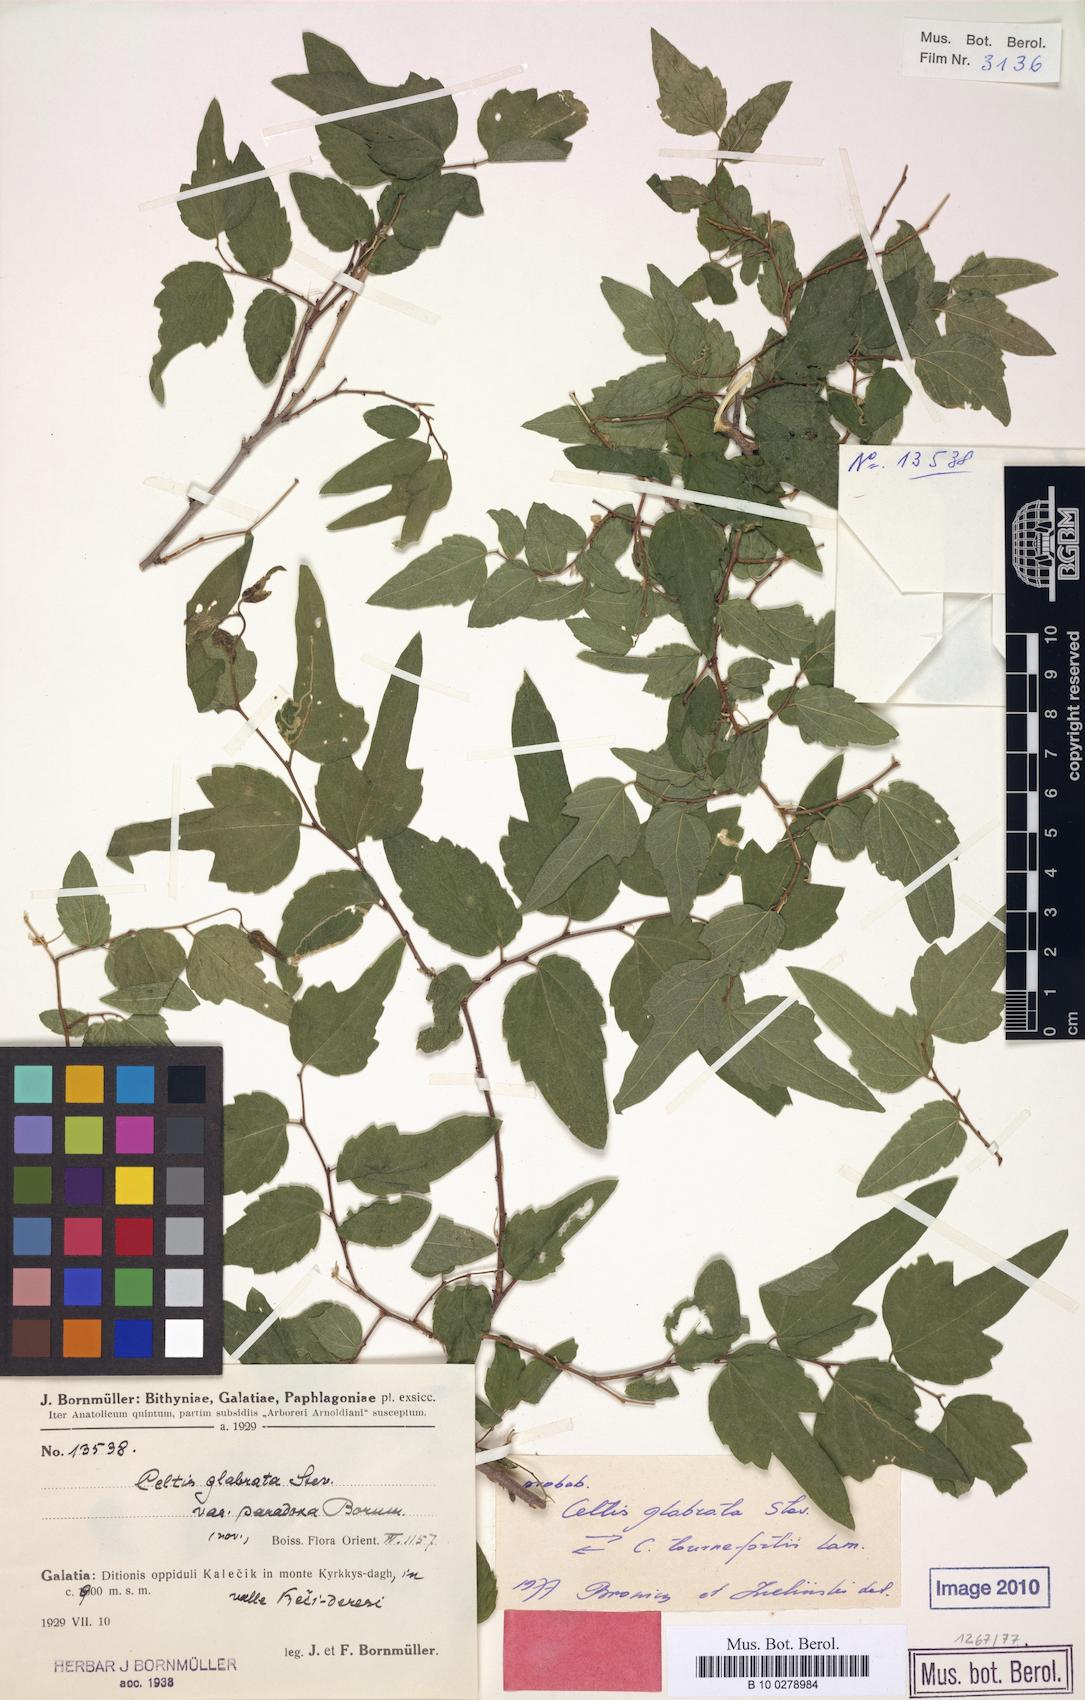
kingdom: Plantae
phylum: Tracheophyta
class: Magnoliopsida
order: Rosales
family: Cannabaceae
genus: Celtis
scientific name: Celtis glabrata
